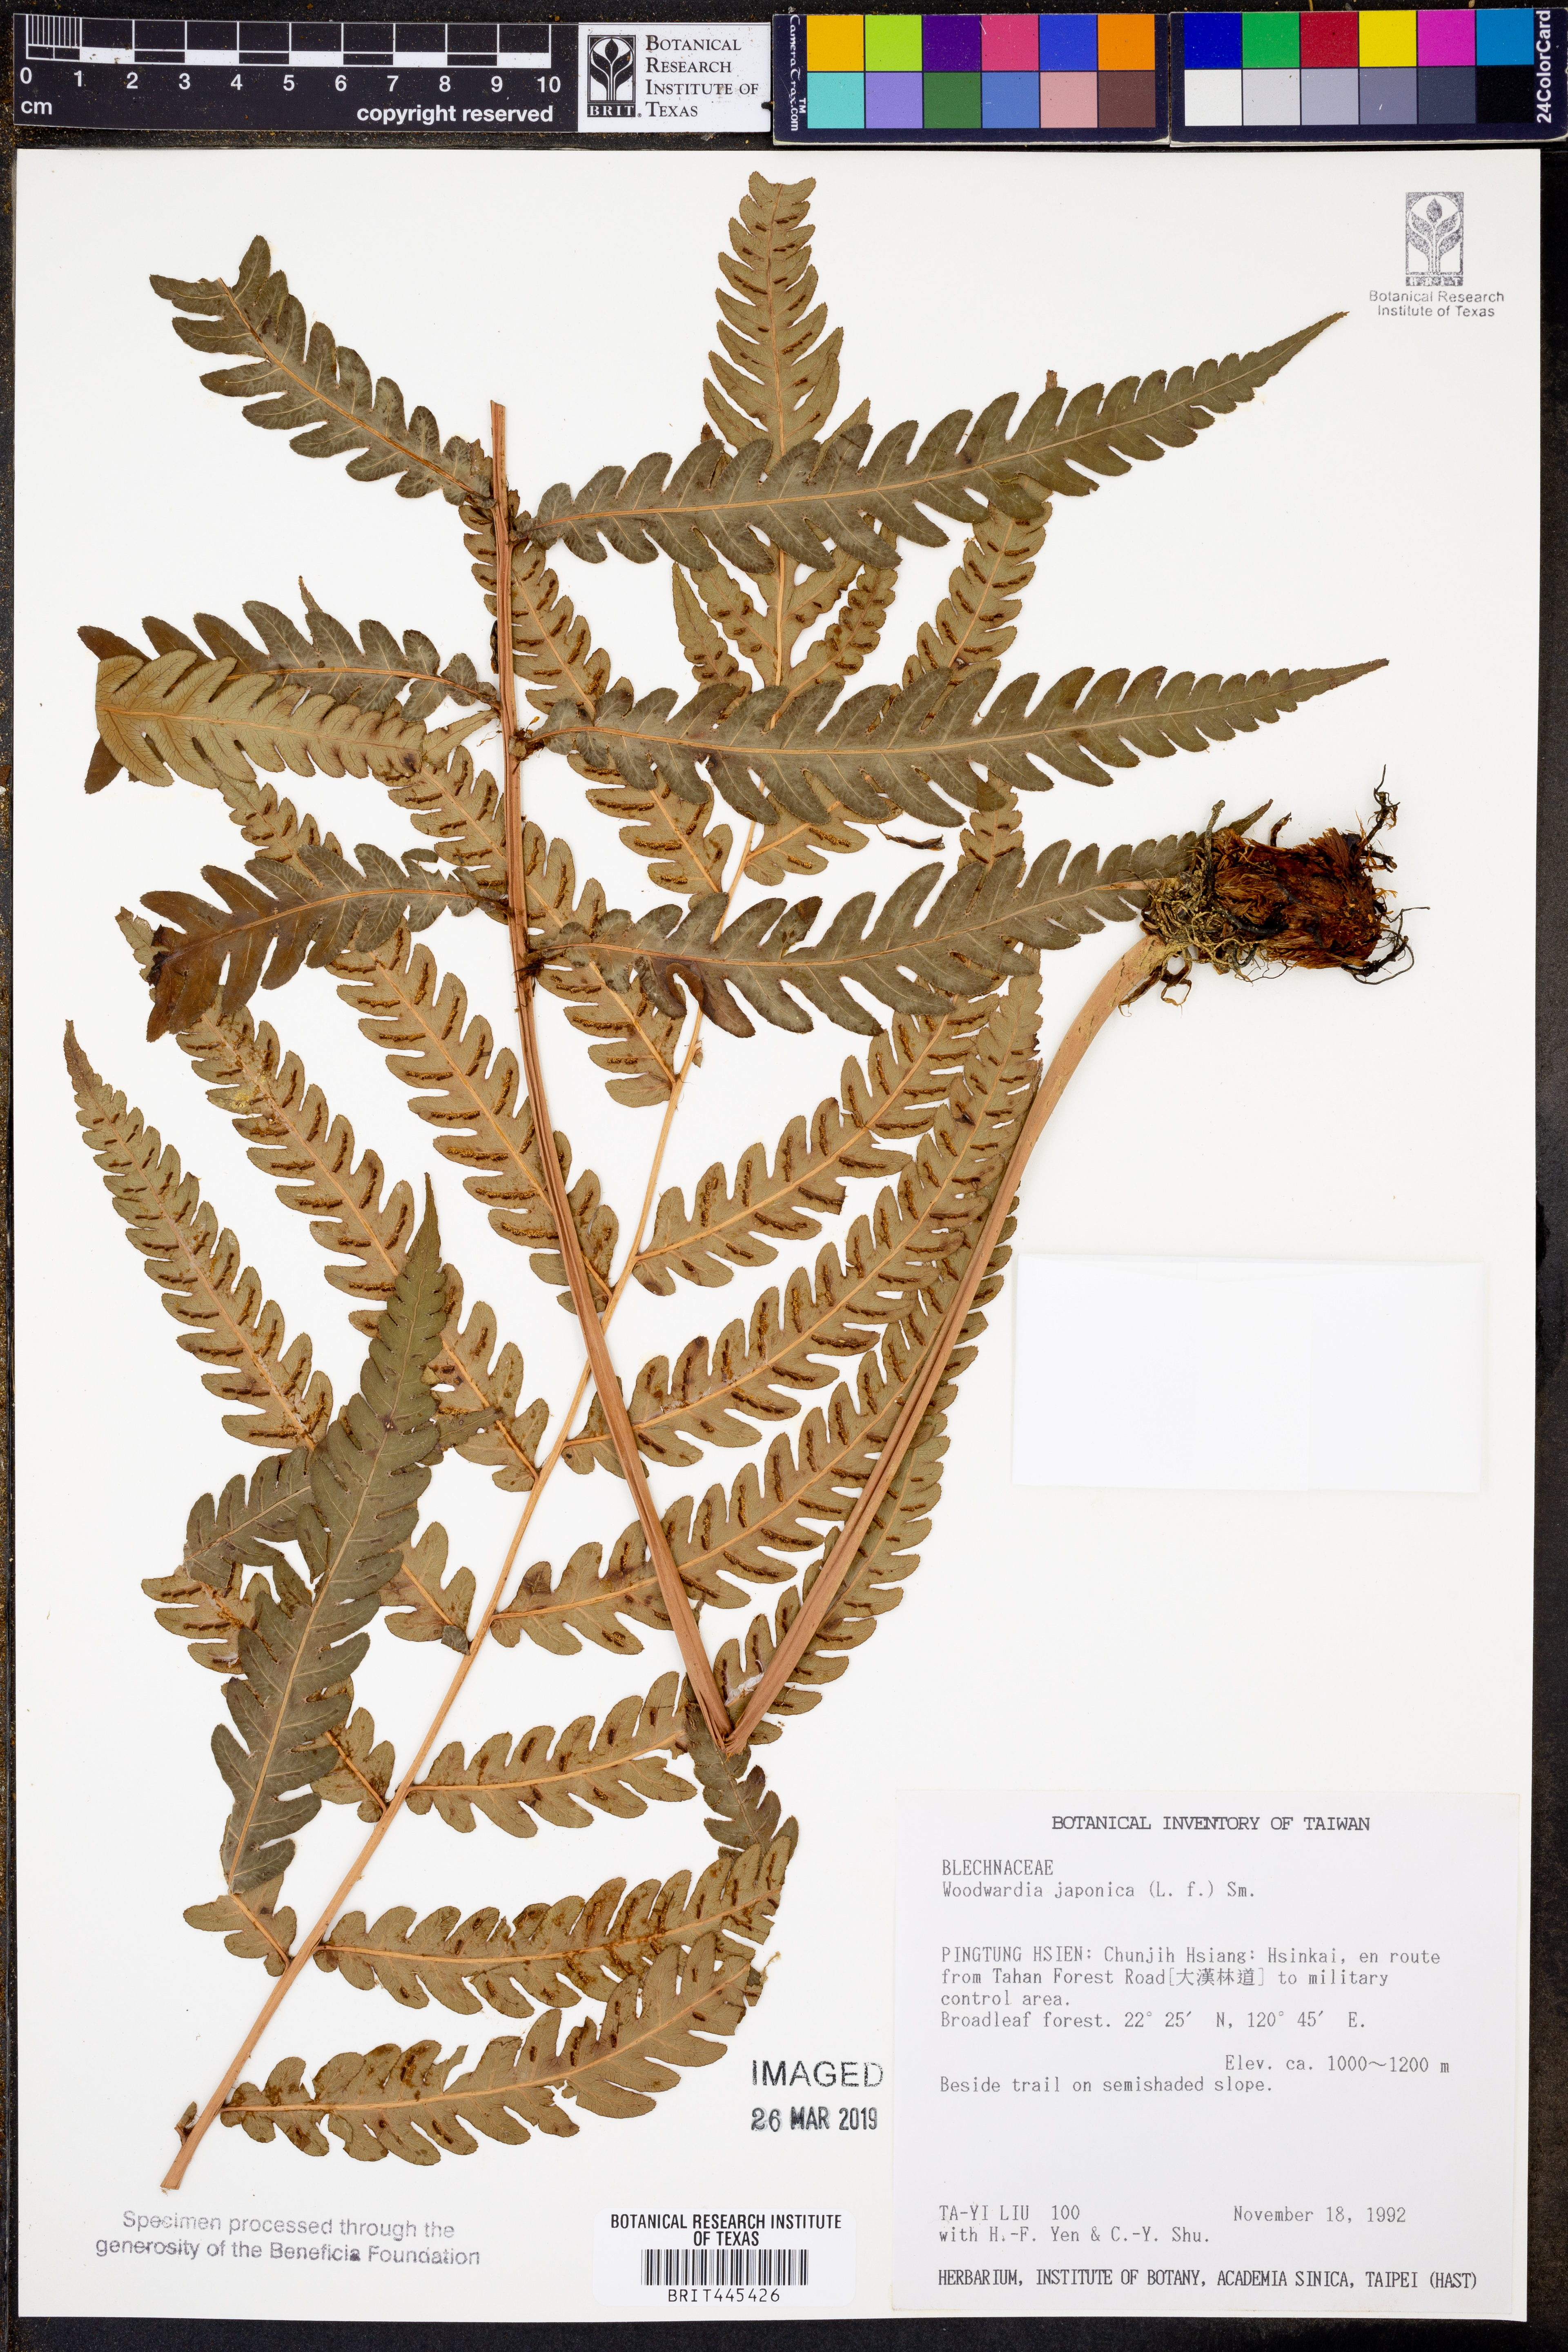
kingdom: Plantae
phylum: Tracheophyta
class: Polypodiopsida
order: Polypodiales
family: Blechnaceae
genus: Woodwardia
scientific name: Woodwardia japonica
